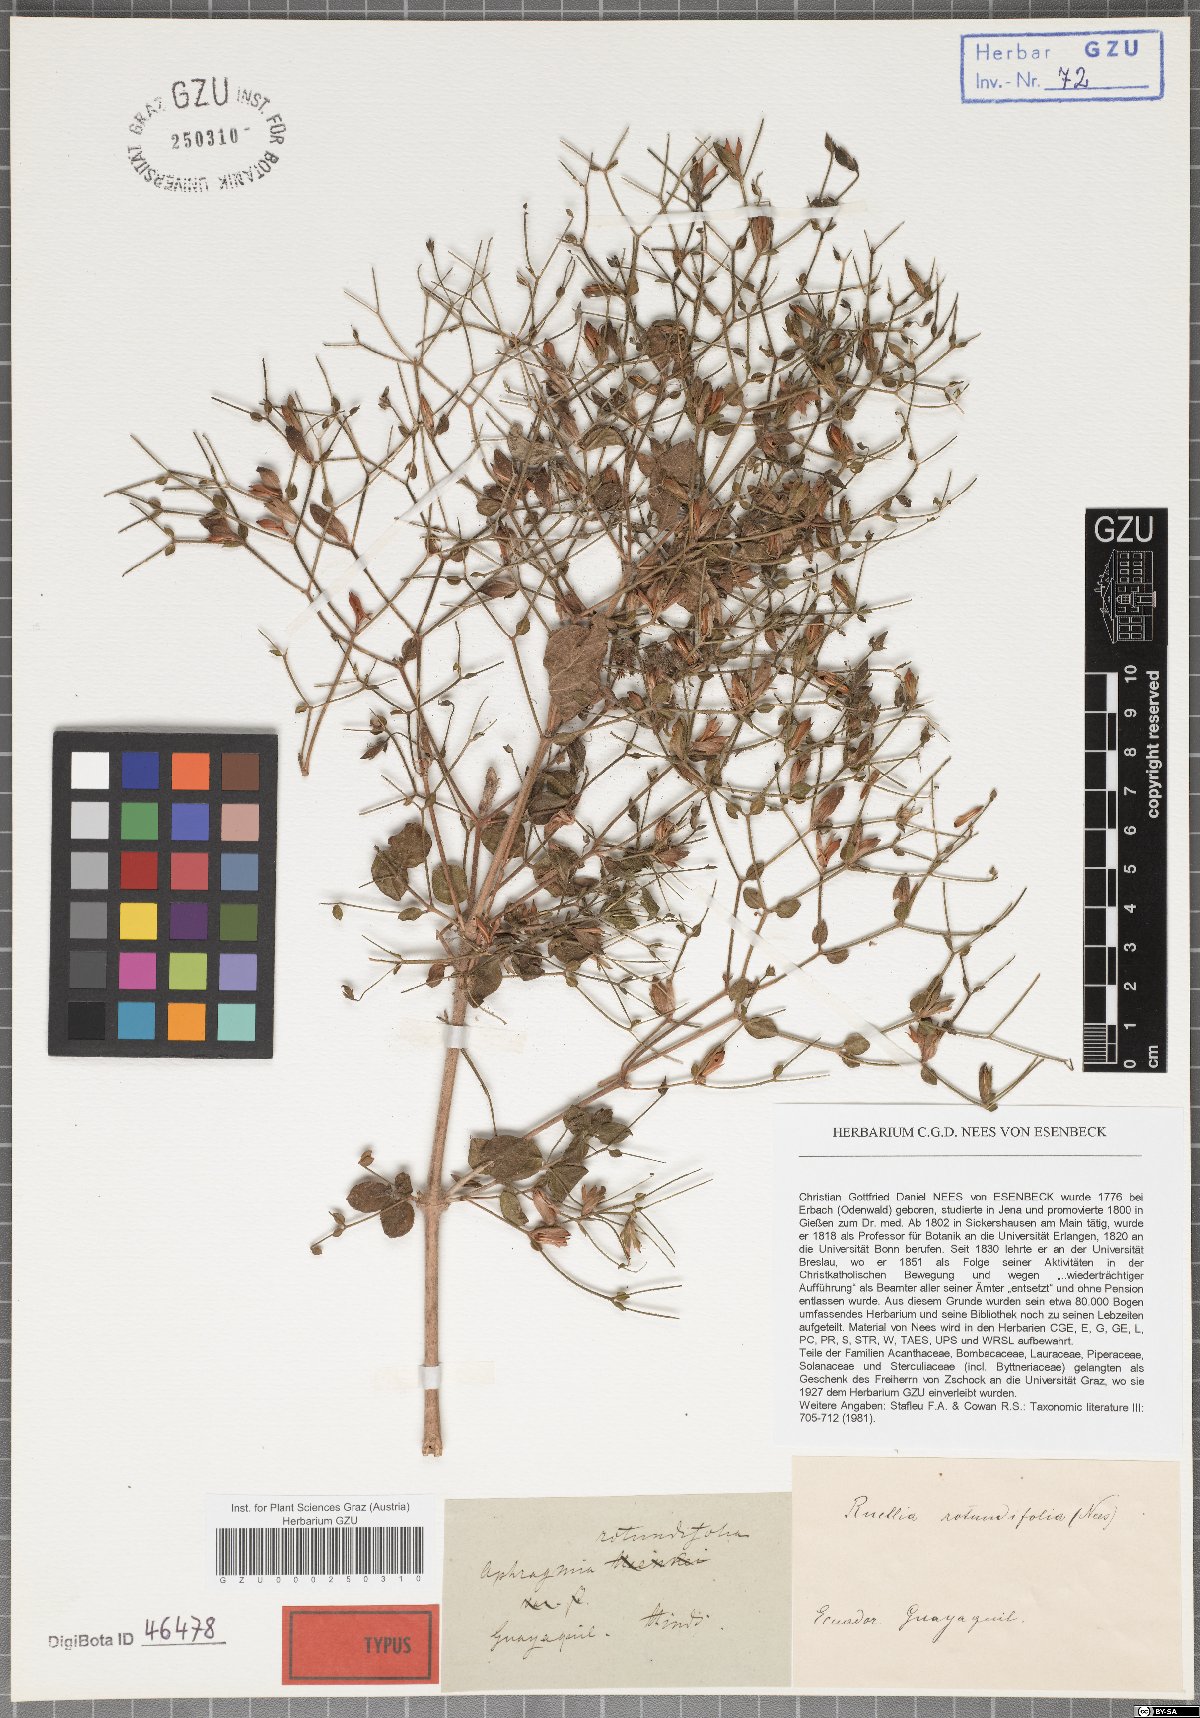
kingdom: Plantae
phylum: Tracheophyta
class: Magnoliopsida
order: Lamiales
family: Acanthaceae
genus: Ruellia
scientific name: Ruellia floribunda
